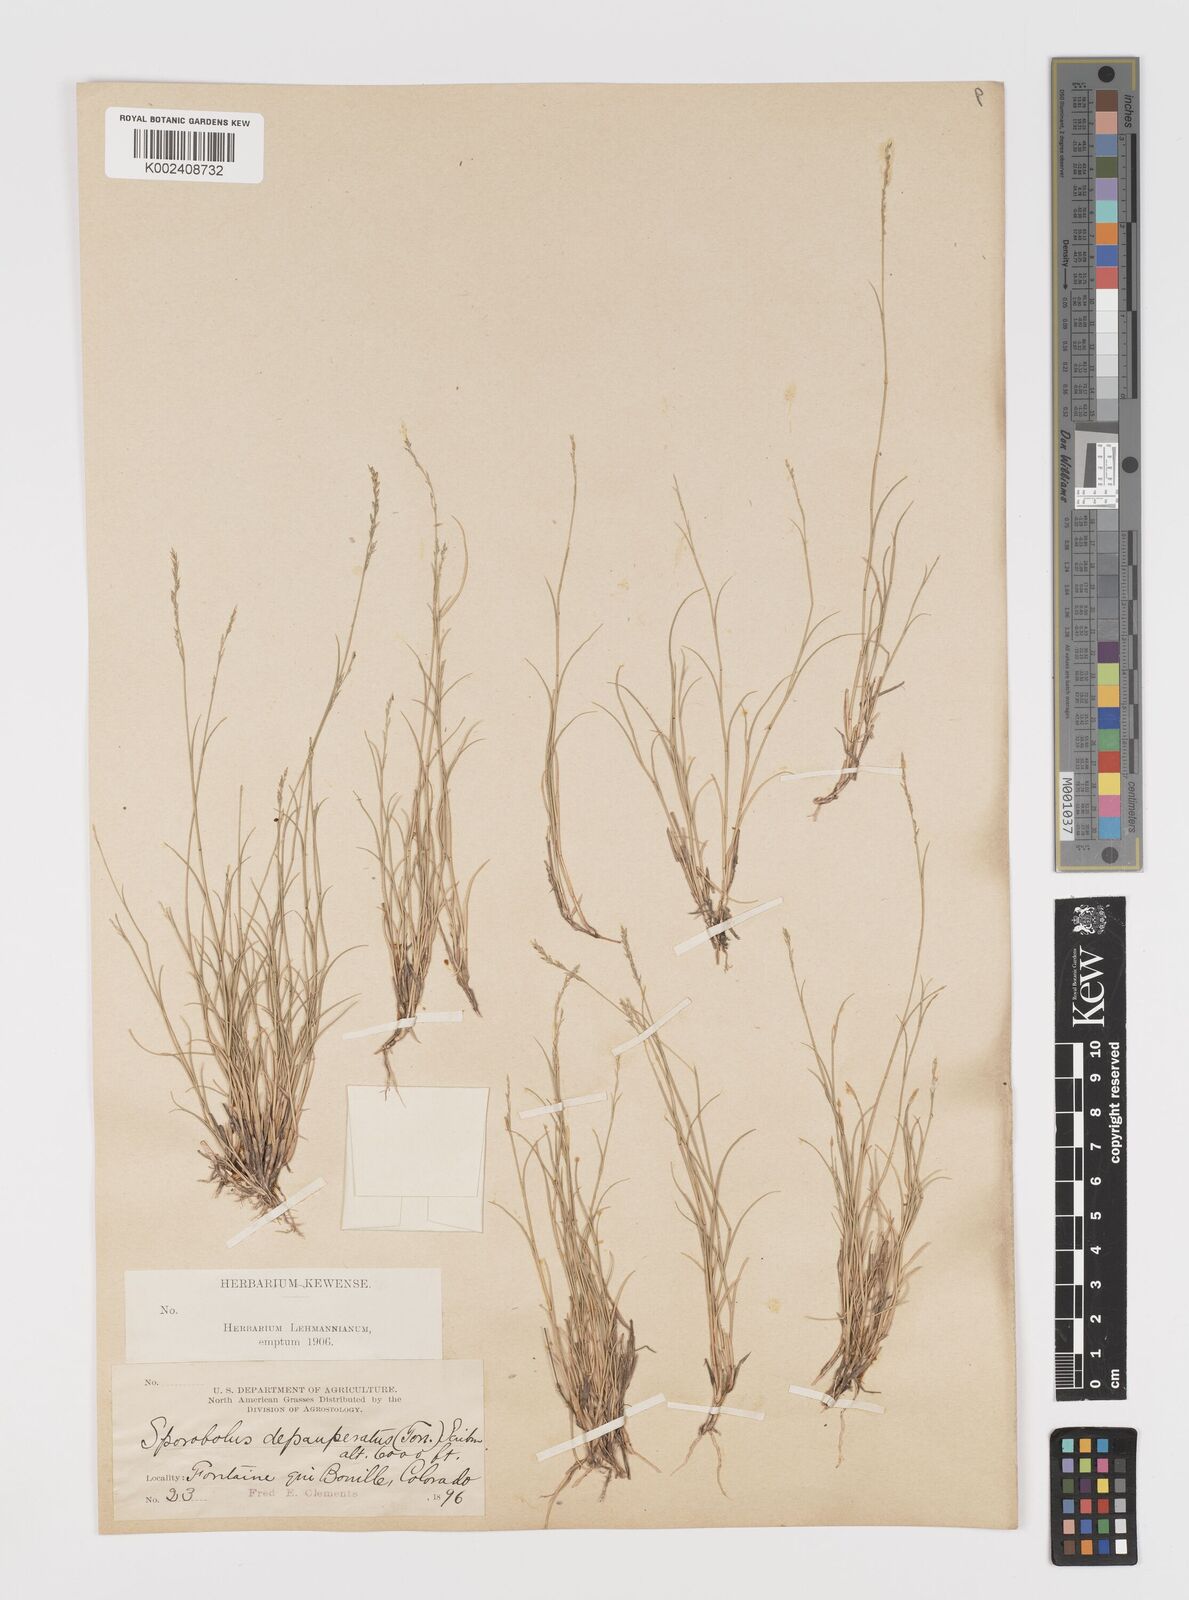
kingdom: Plantae
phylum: Tracheophyta
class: Liliopsida
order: Poales
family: Poaceae
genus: Muhlenbergia
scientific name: Muhlenbergia richardsonis
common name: Mat muhly
